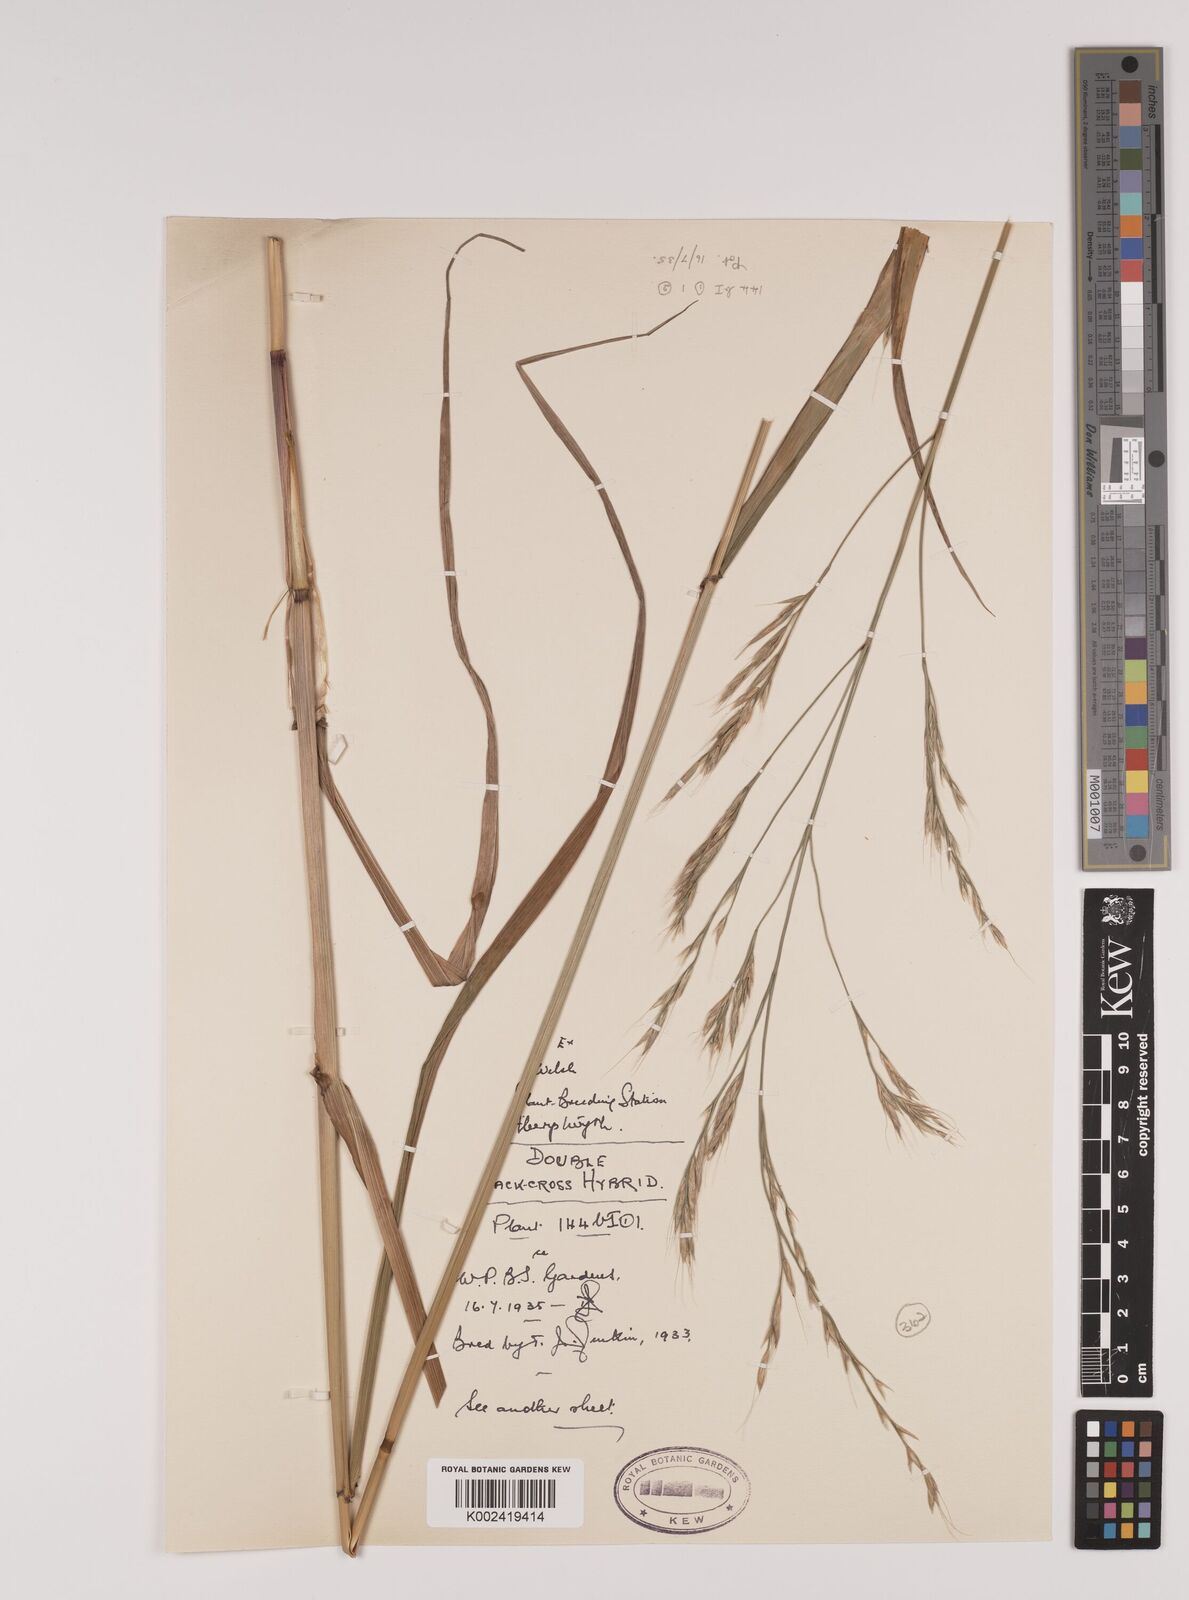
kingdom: Plantae
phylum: Tracheophyta
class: Liliopsida
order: Poales
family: Poaceae
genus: Lolium
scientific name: Lolium giganteum
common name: Giant fescue
